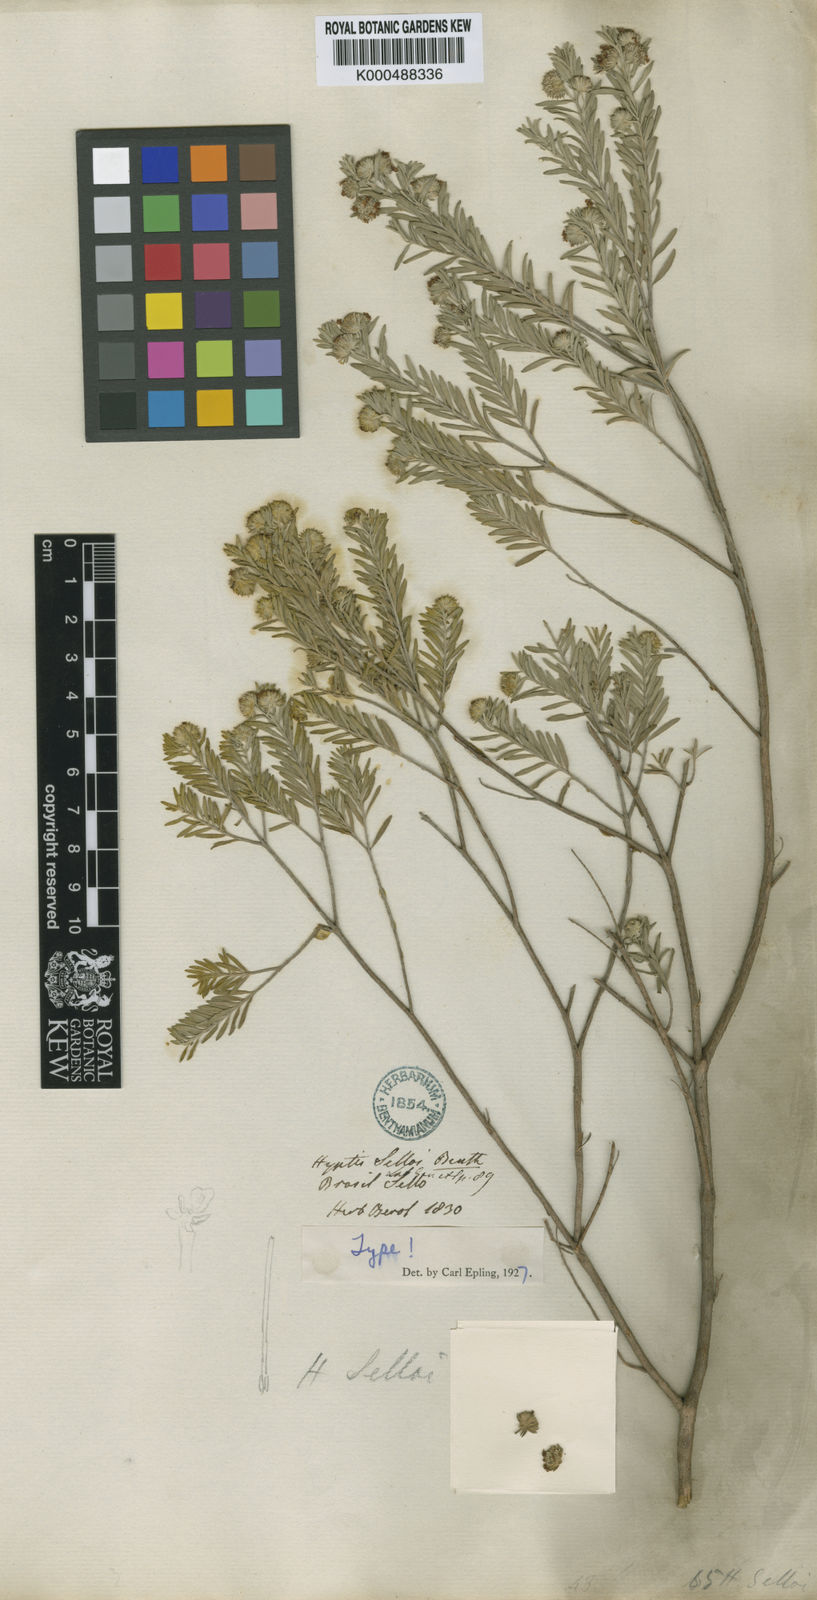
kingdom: Plantae
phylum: Tracheophyta
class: Magnoliopsida
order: Lamiales
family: Lamiaceae
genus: Hyptis
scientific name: Hyptis selloi
